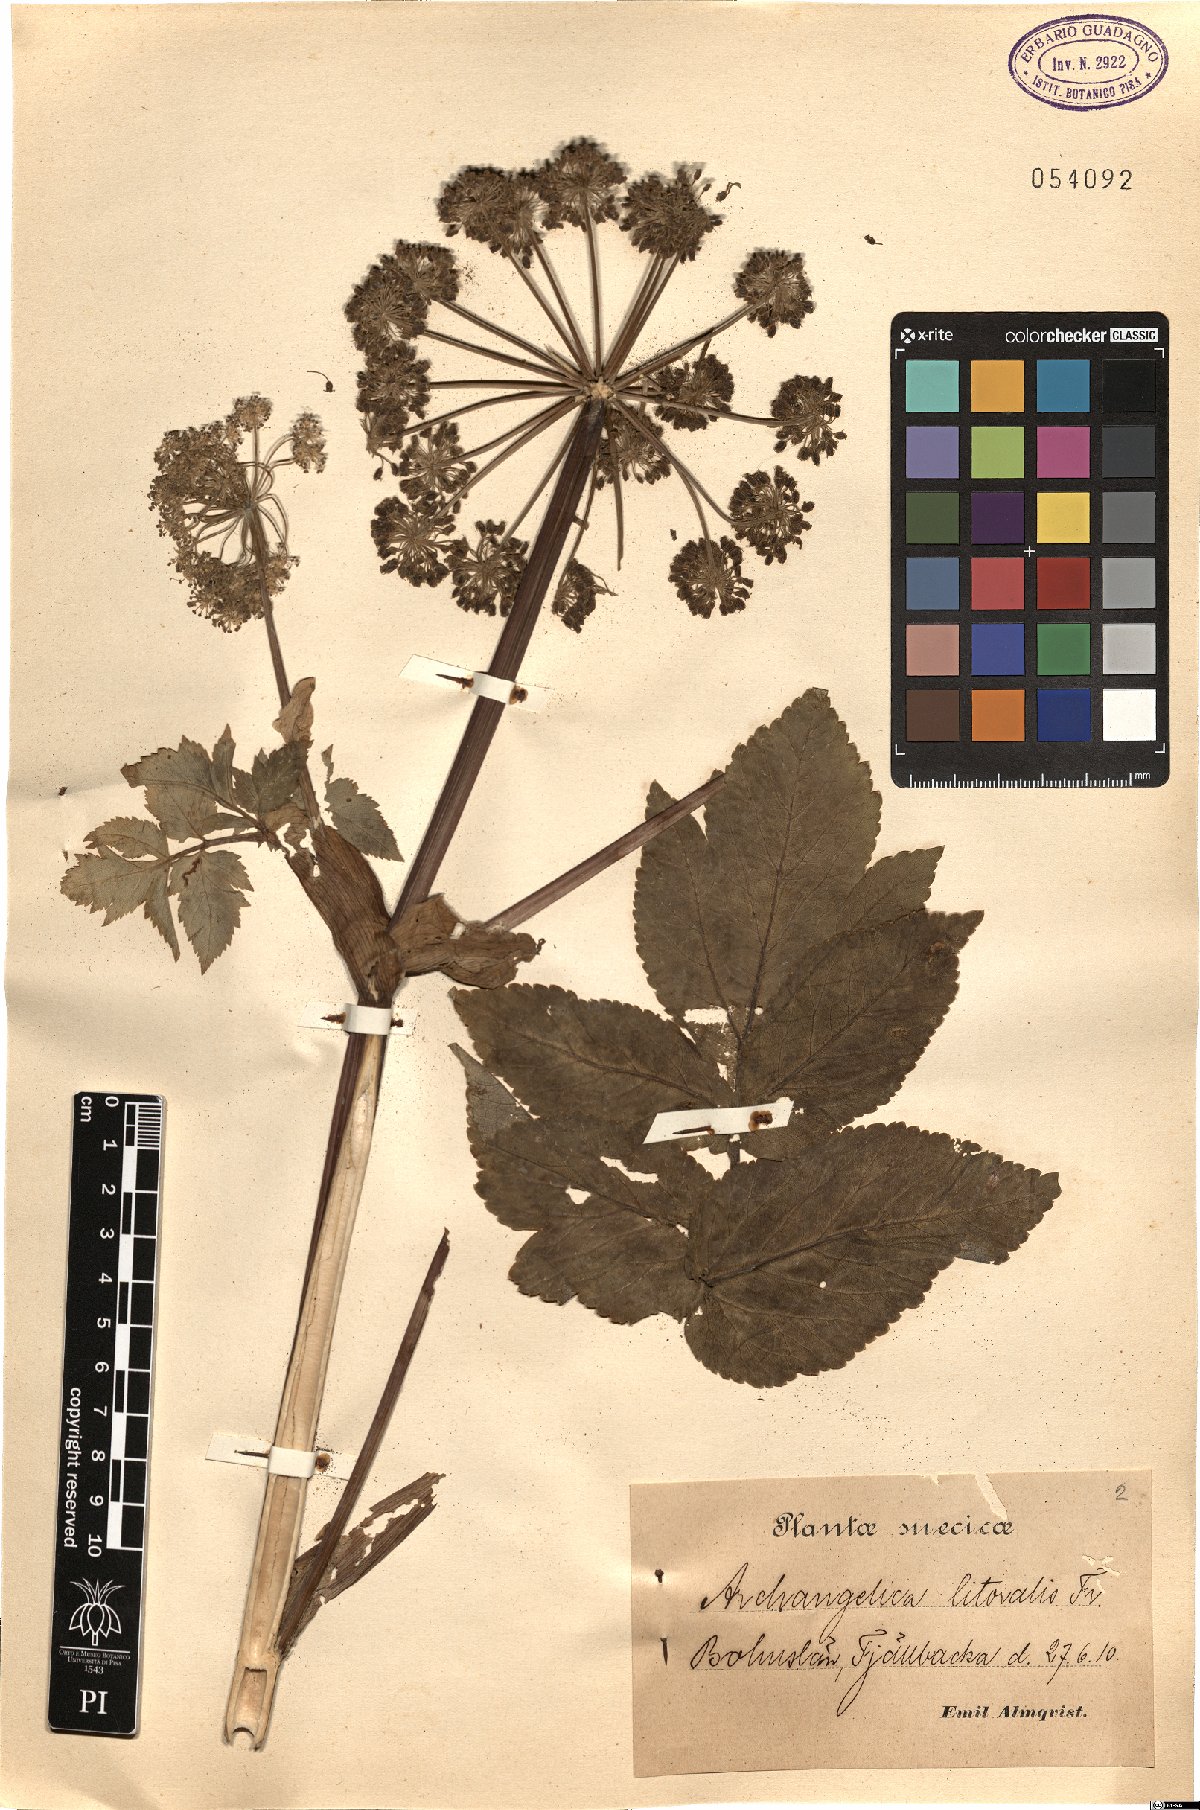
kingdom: Plantae
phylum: Tracheophyta
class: Magnoliopsida
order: Apiales
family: Apiaceae
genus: Angelica
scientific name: Angelica archangelica
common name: Garden angelica
